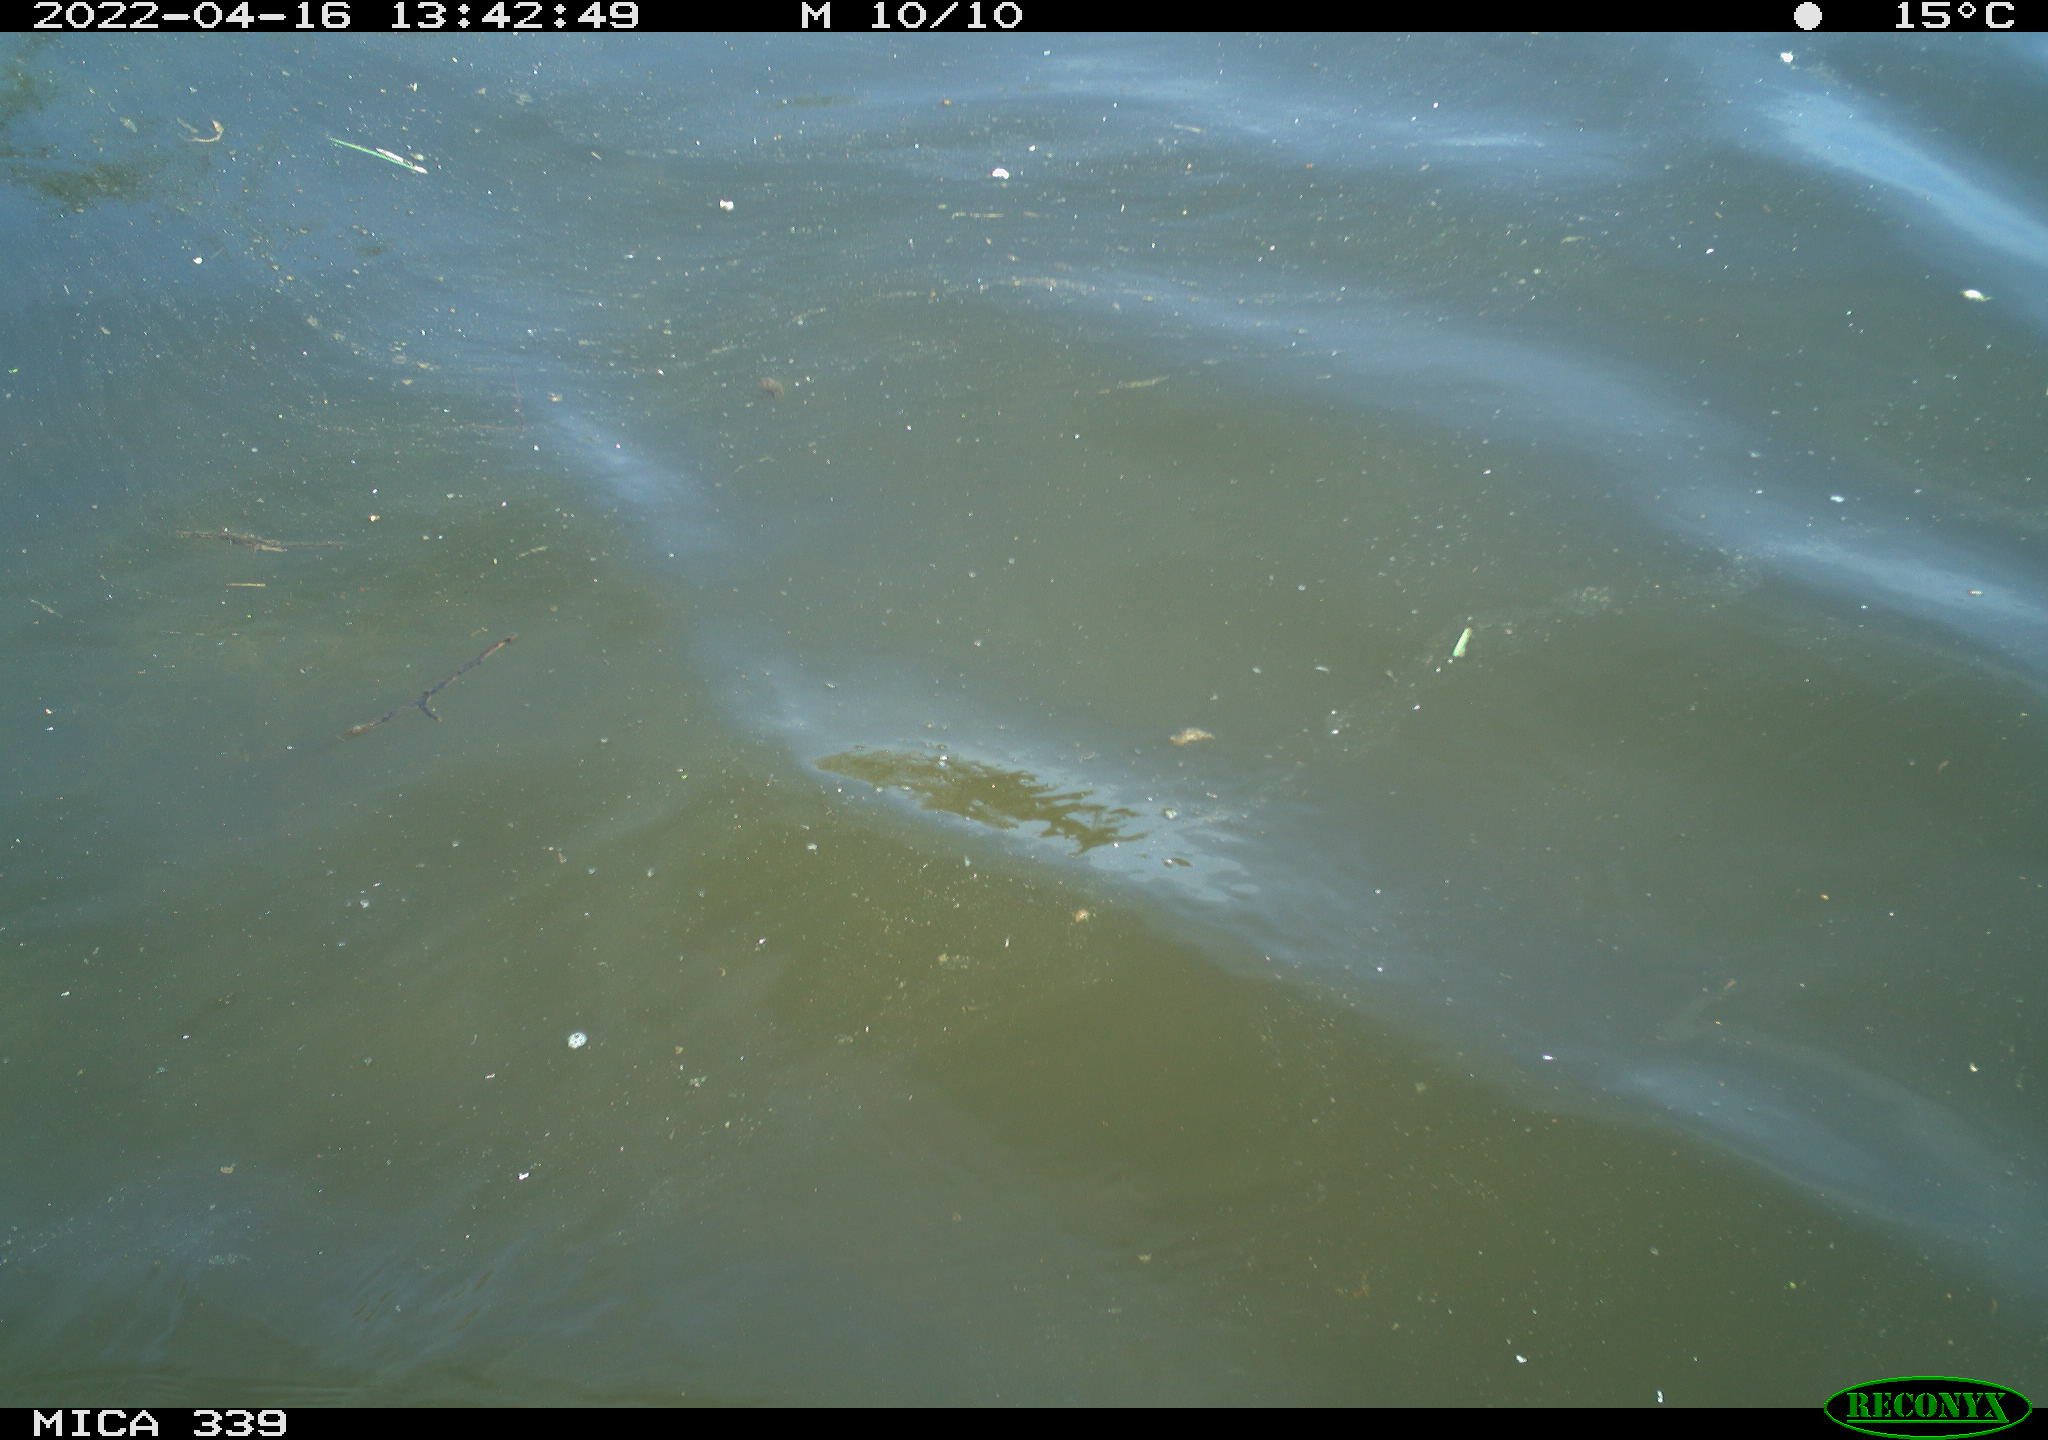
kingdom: Animalia
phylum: Chordata
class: Aves
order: Gruiformes
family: Rallidae
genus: Fulica
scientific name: Fulica atra
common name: Eurasian coot
